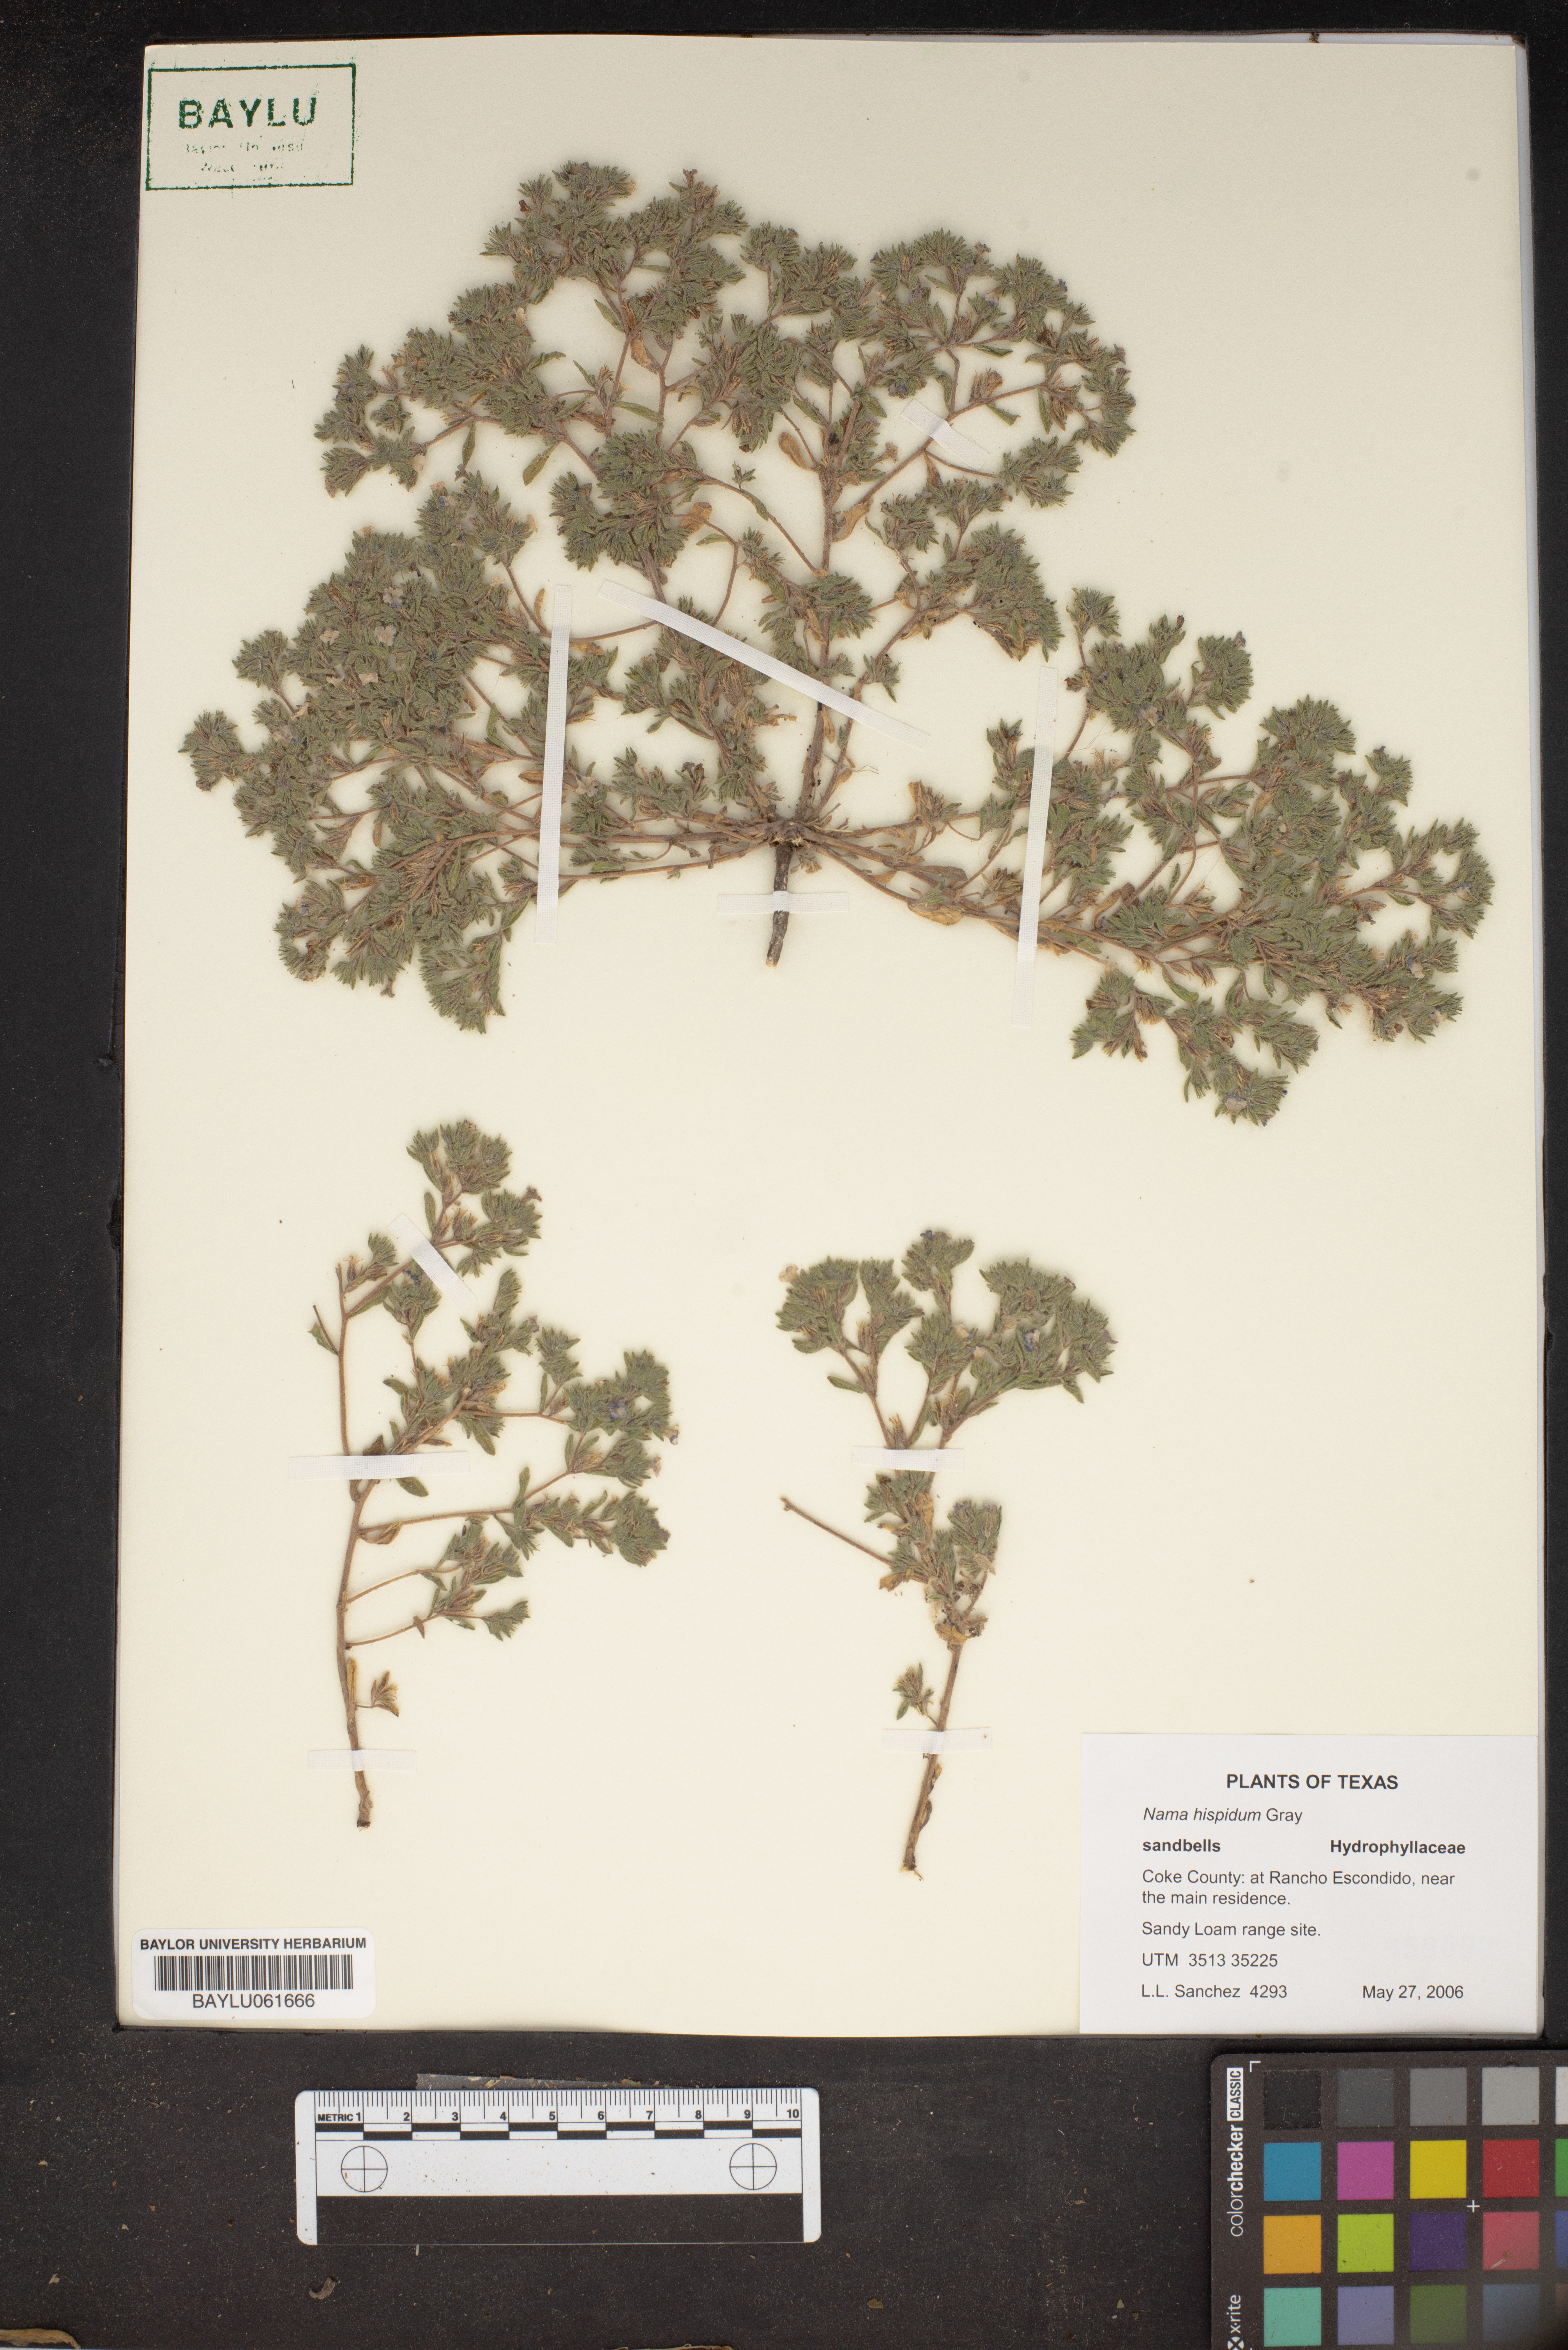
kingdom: Plantae
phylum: Tracheophyta
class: Magnoliopsida
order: Boraginales
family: Namaceae
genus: Nama
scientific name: Nama hispida
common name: Bristly nama
